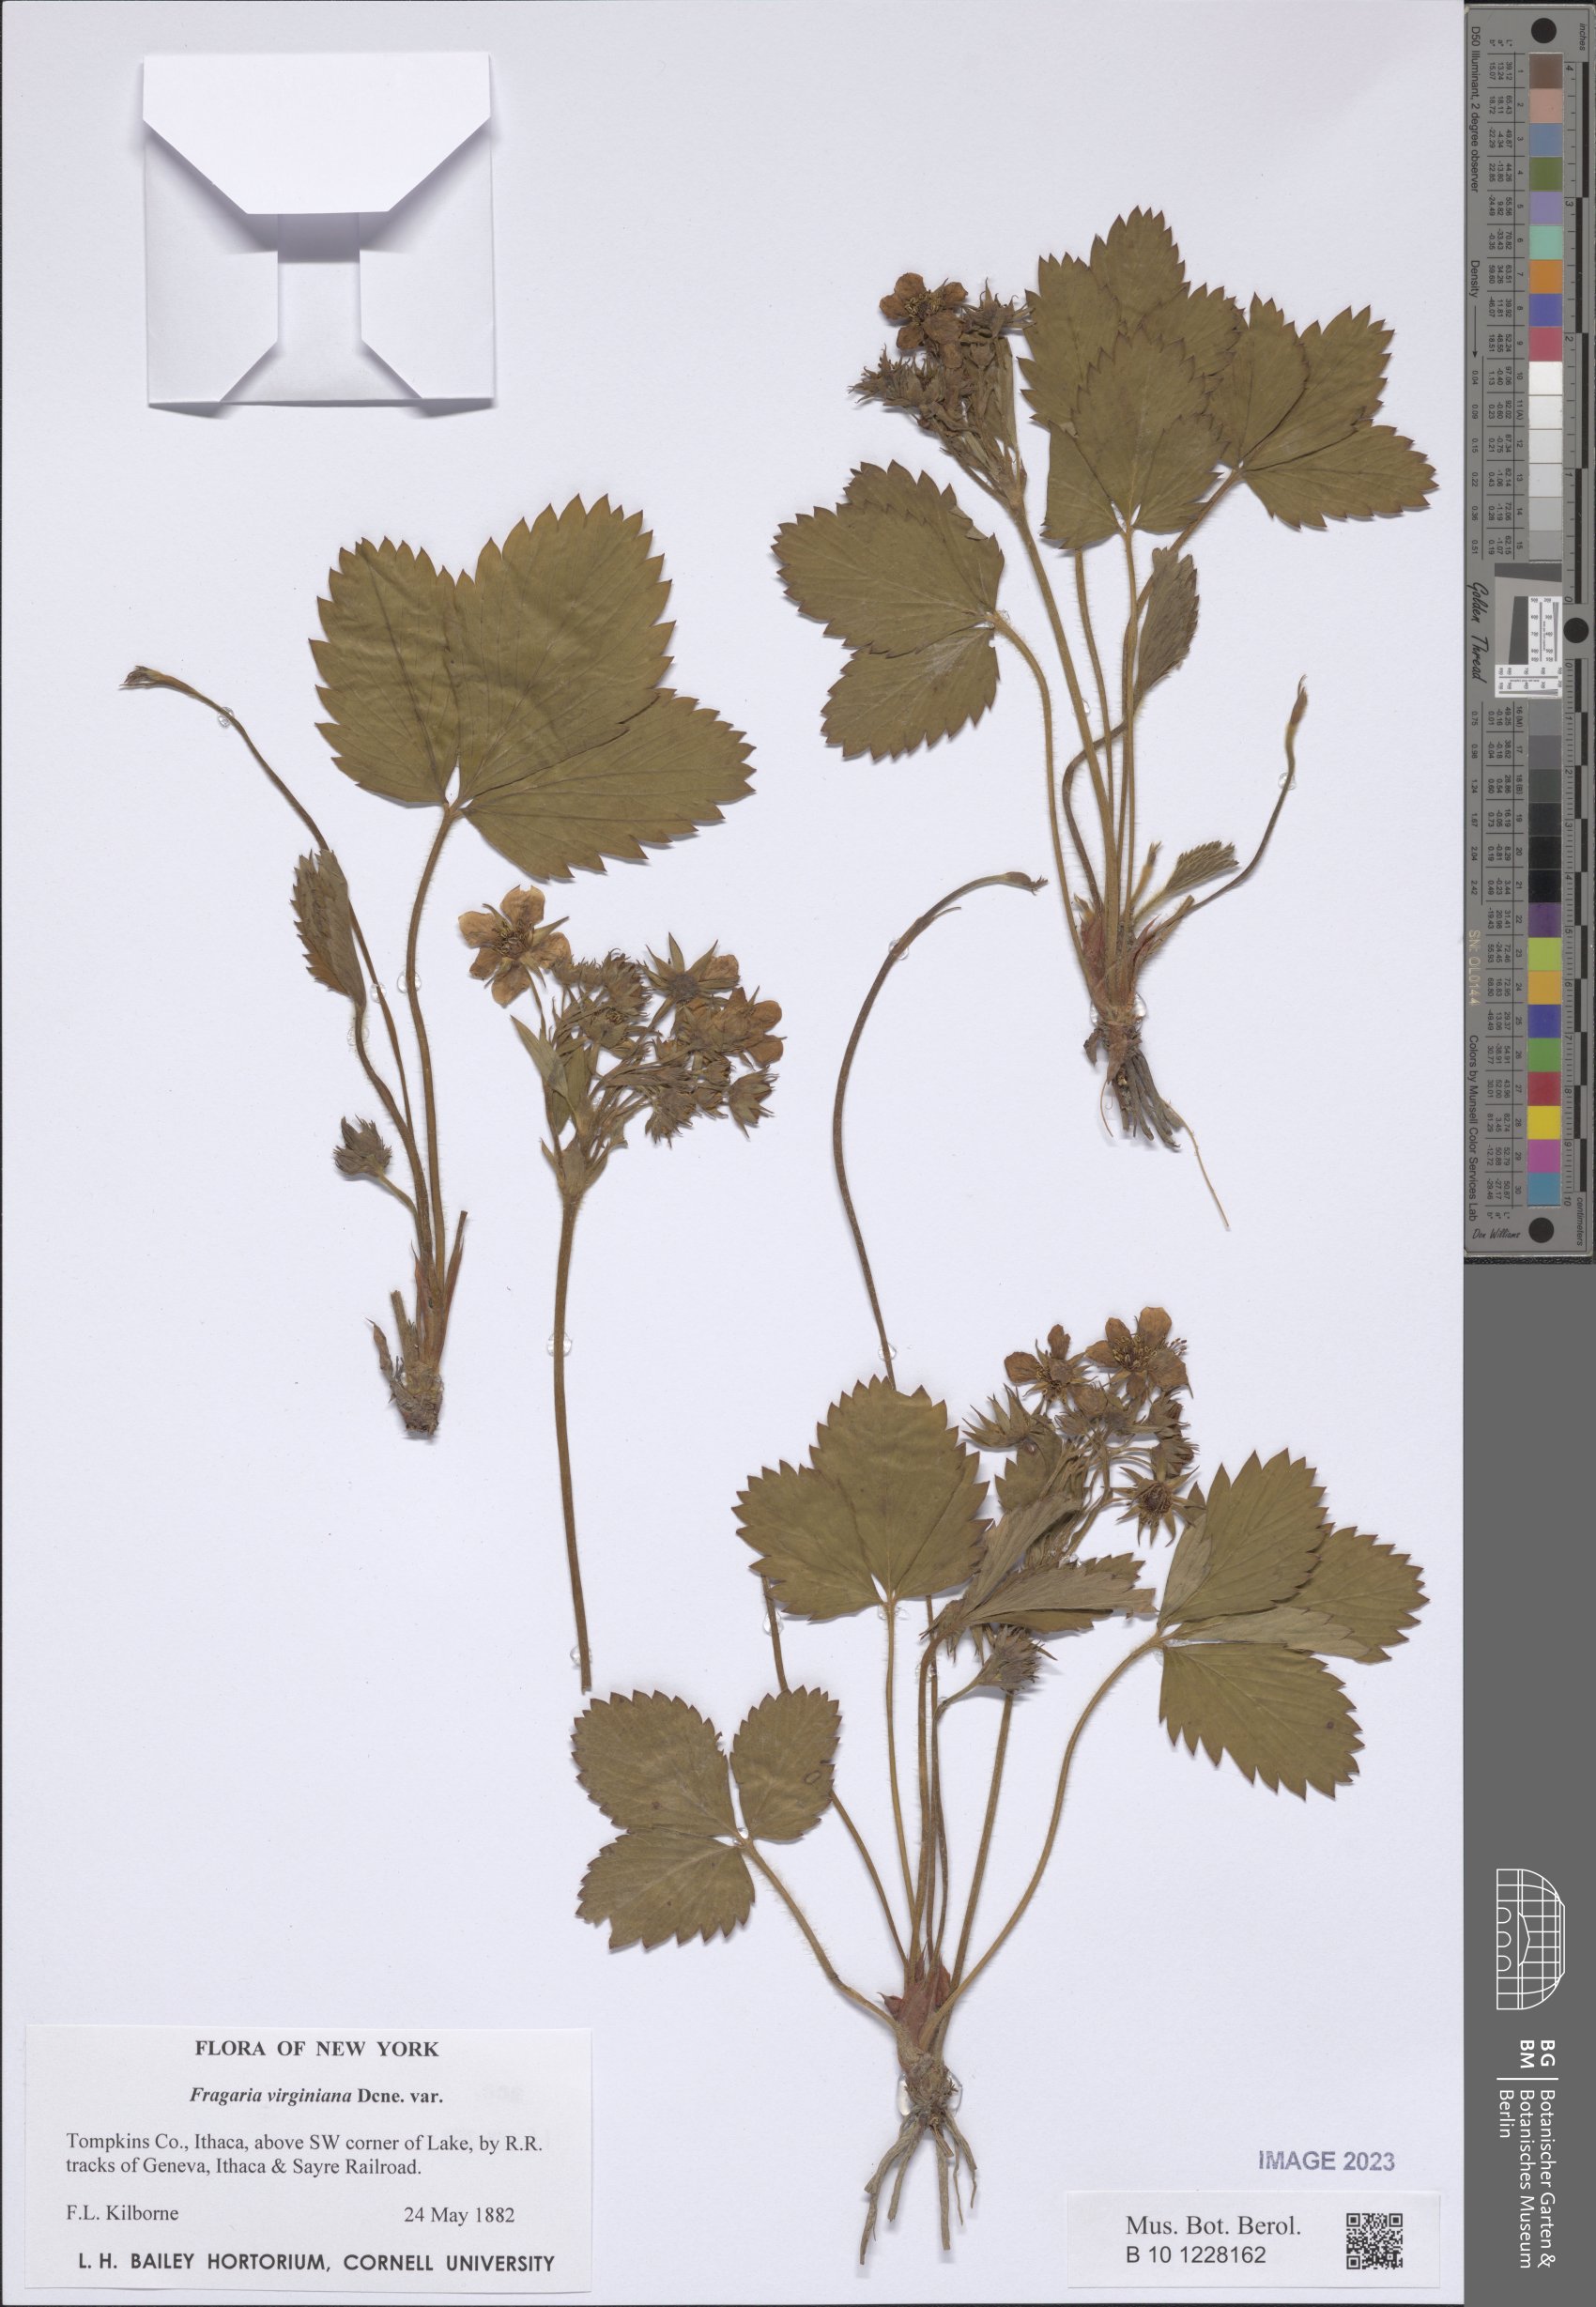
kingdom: Plantae
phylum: Tracheophyta
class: Magnoliopsida
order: Rosales
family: Rosaceae
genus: Fragaria
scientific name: Fragaria virginiana
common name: Thickleaved wild strawberry
